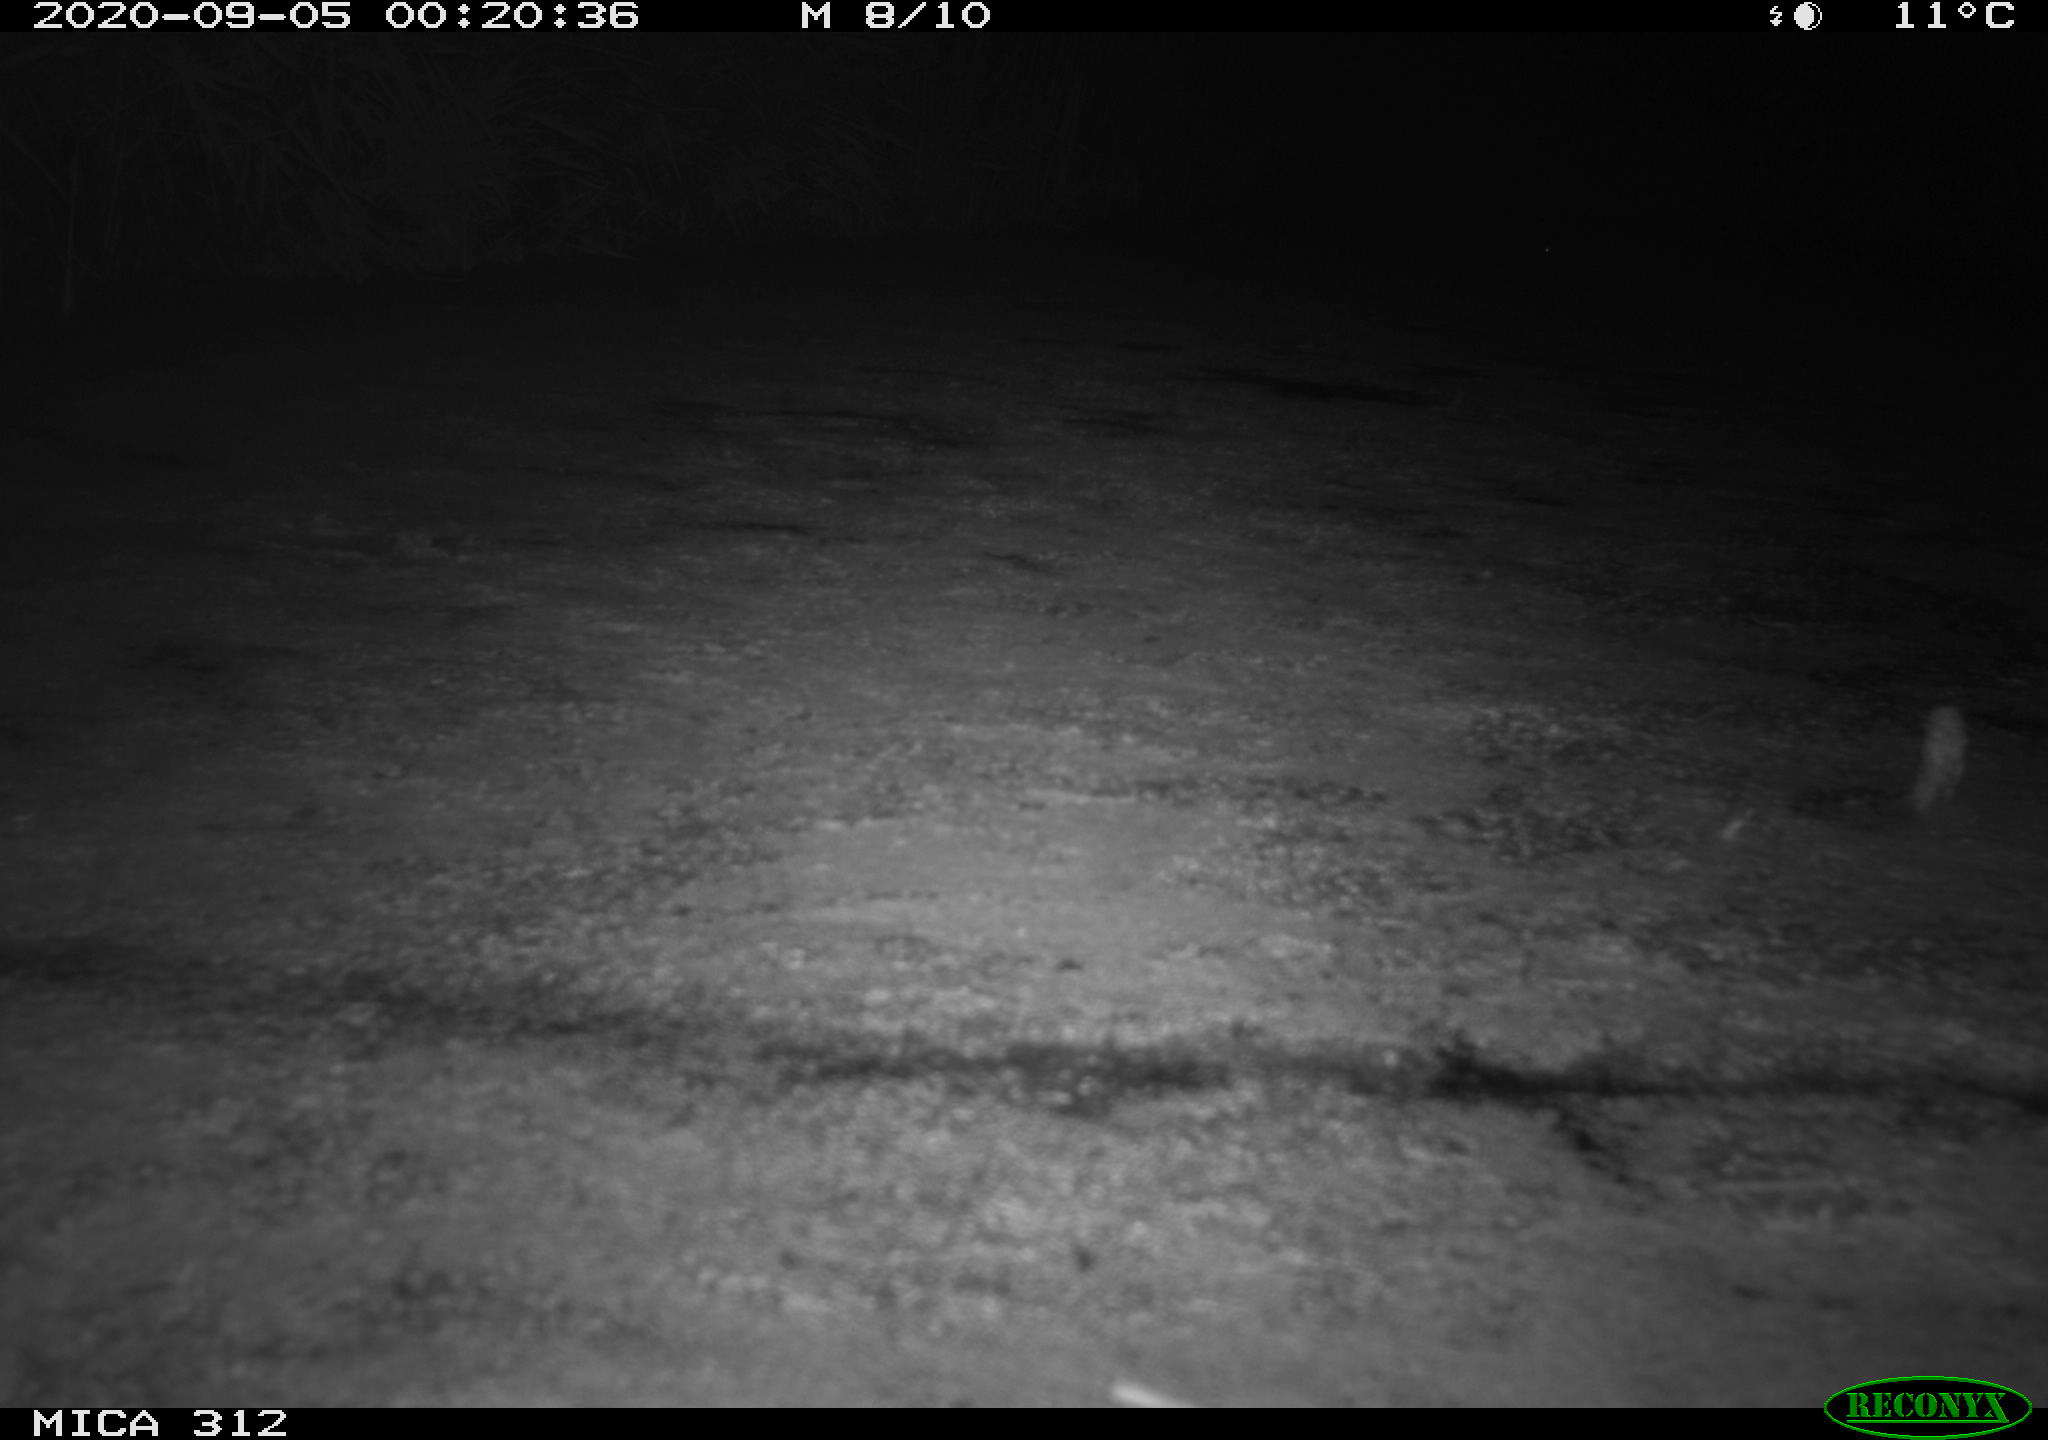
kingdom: Animalia
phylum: Chordata
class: Mammalia
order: Rodentia
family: Muridae
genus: Rattus
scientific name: Rattus norvegicus
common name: Brown rat
